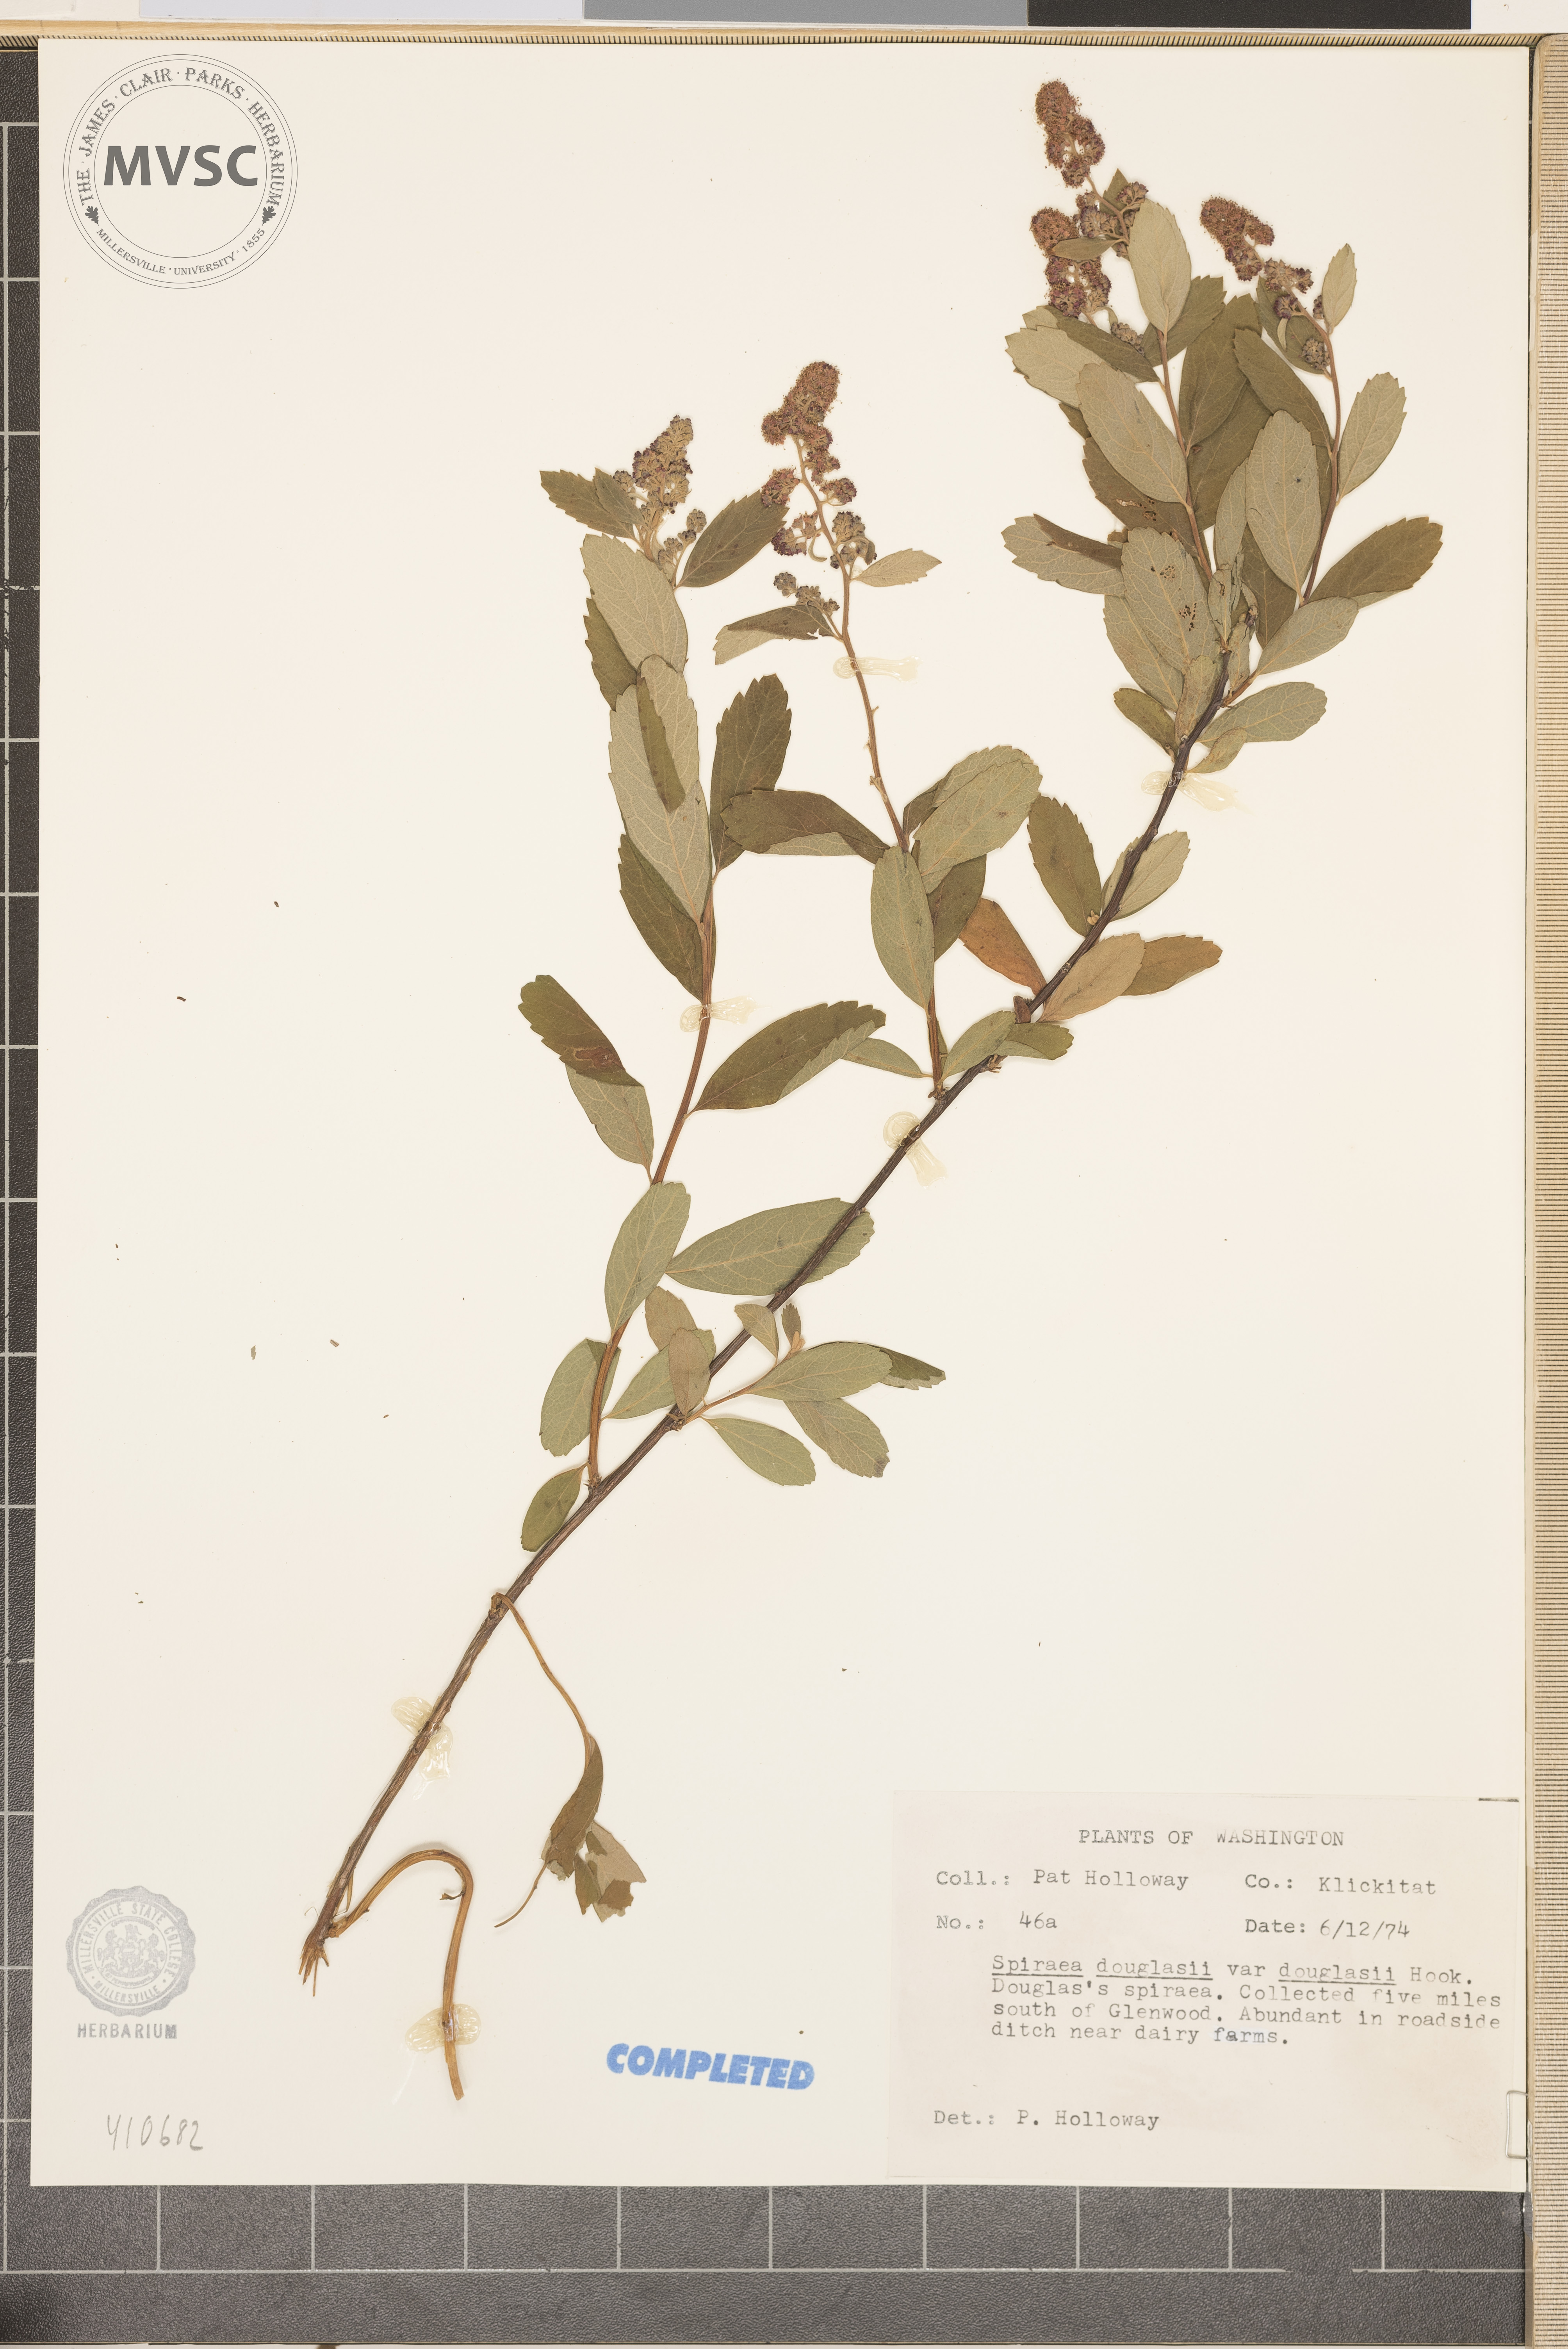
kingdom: Plantae
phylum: Tracheophyta
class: Magnoliopsida
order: Rosales
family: Rosaceae
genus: Spiraea
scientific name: Spiraea douglasii
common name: Steeplebush
